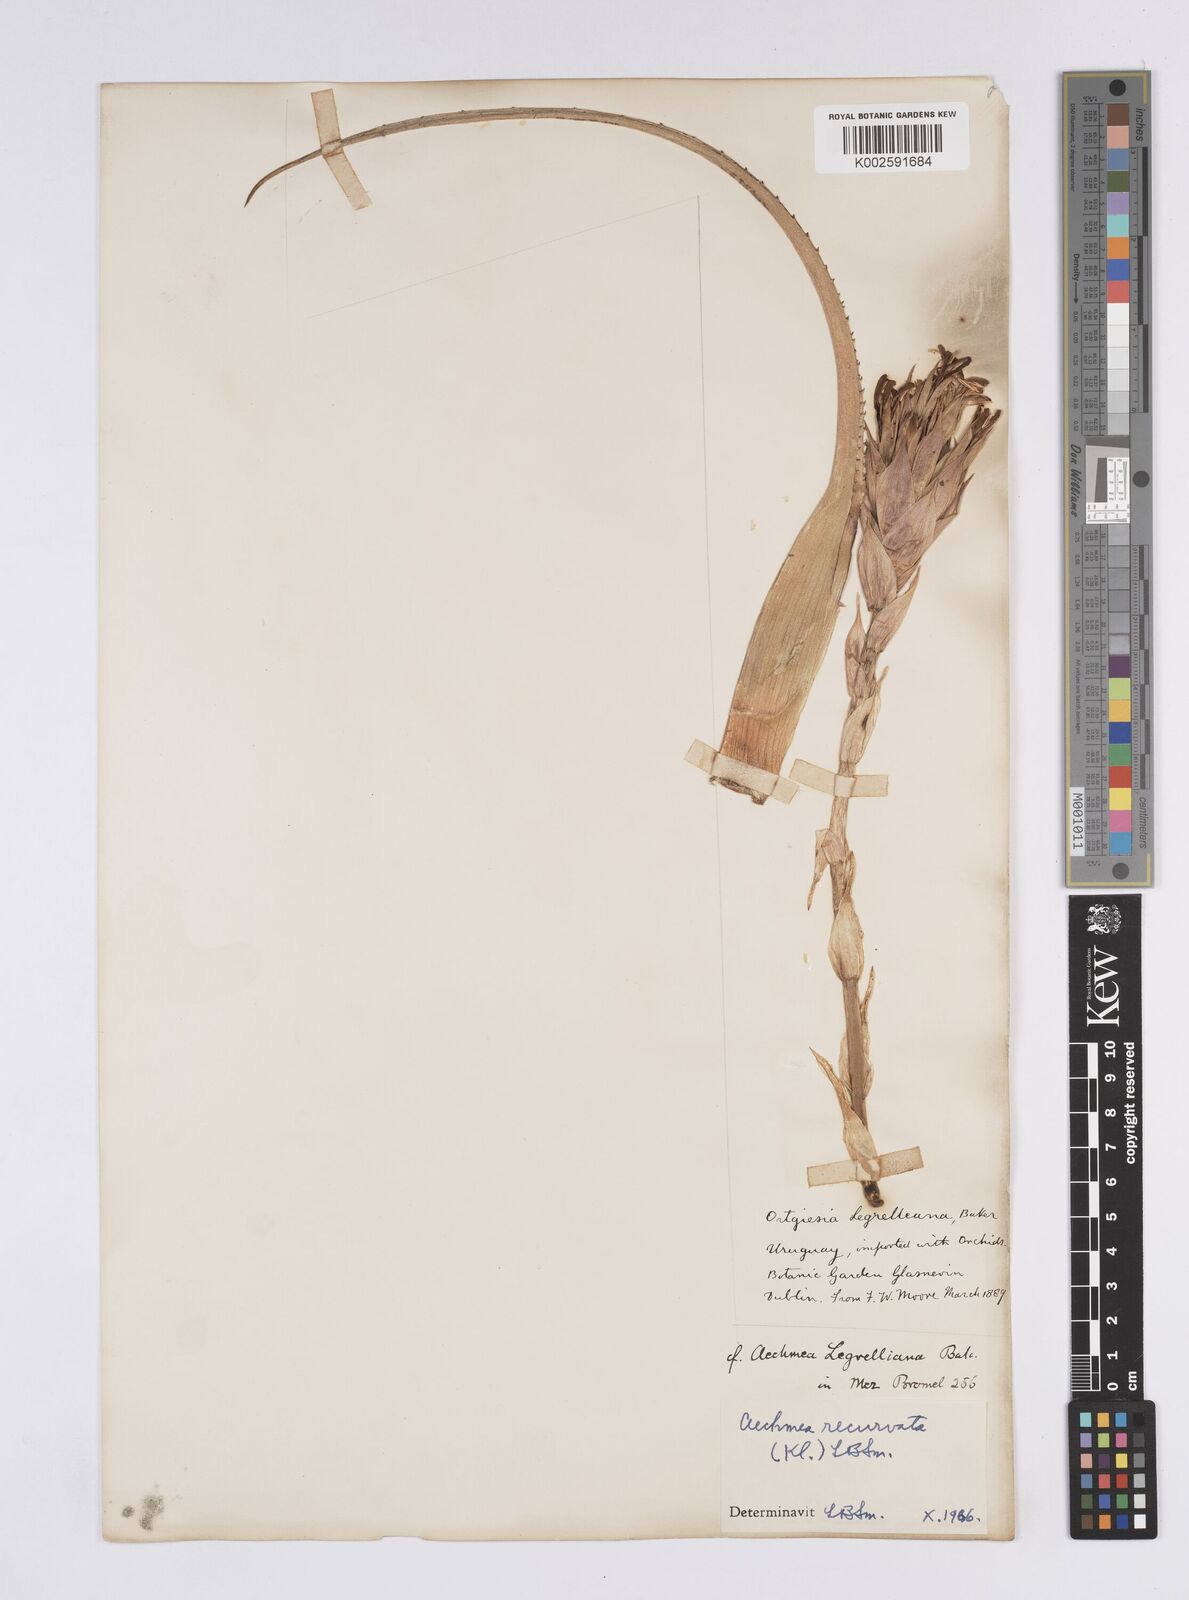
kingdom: Plantae
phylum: Tracheophyta
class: Liliopsida
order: Poales
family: Bromeliaceae
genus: Aechmea
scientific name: Aechmea recurvata
